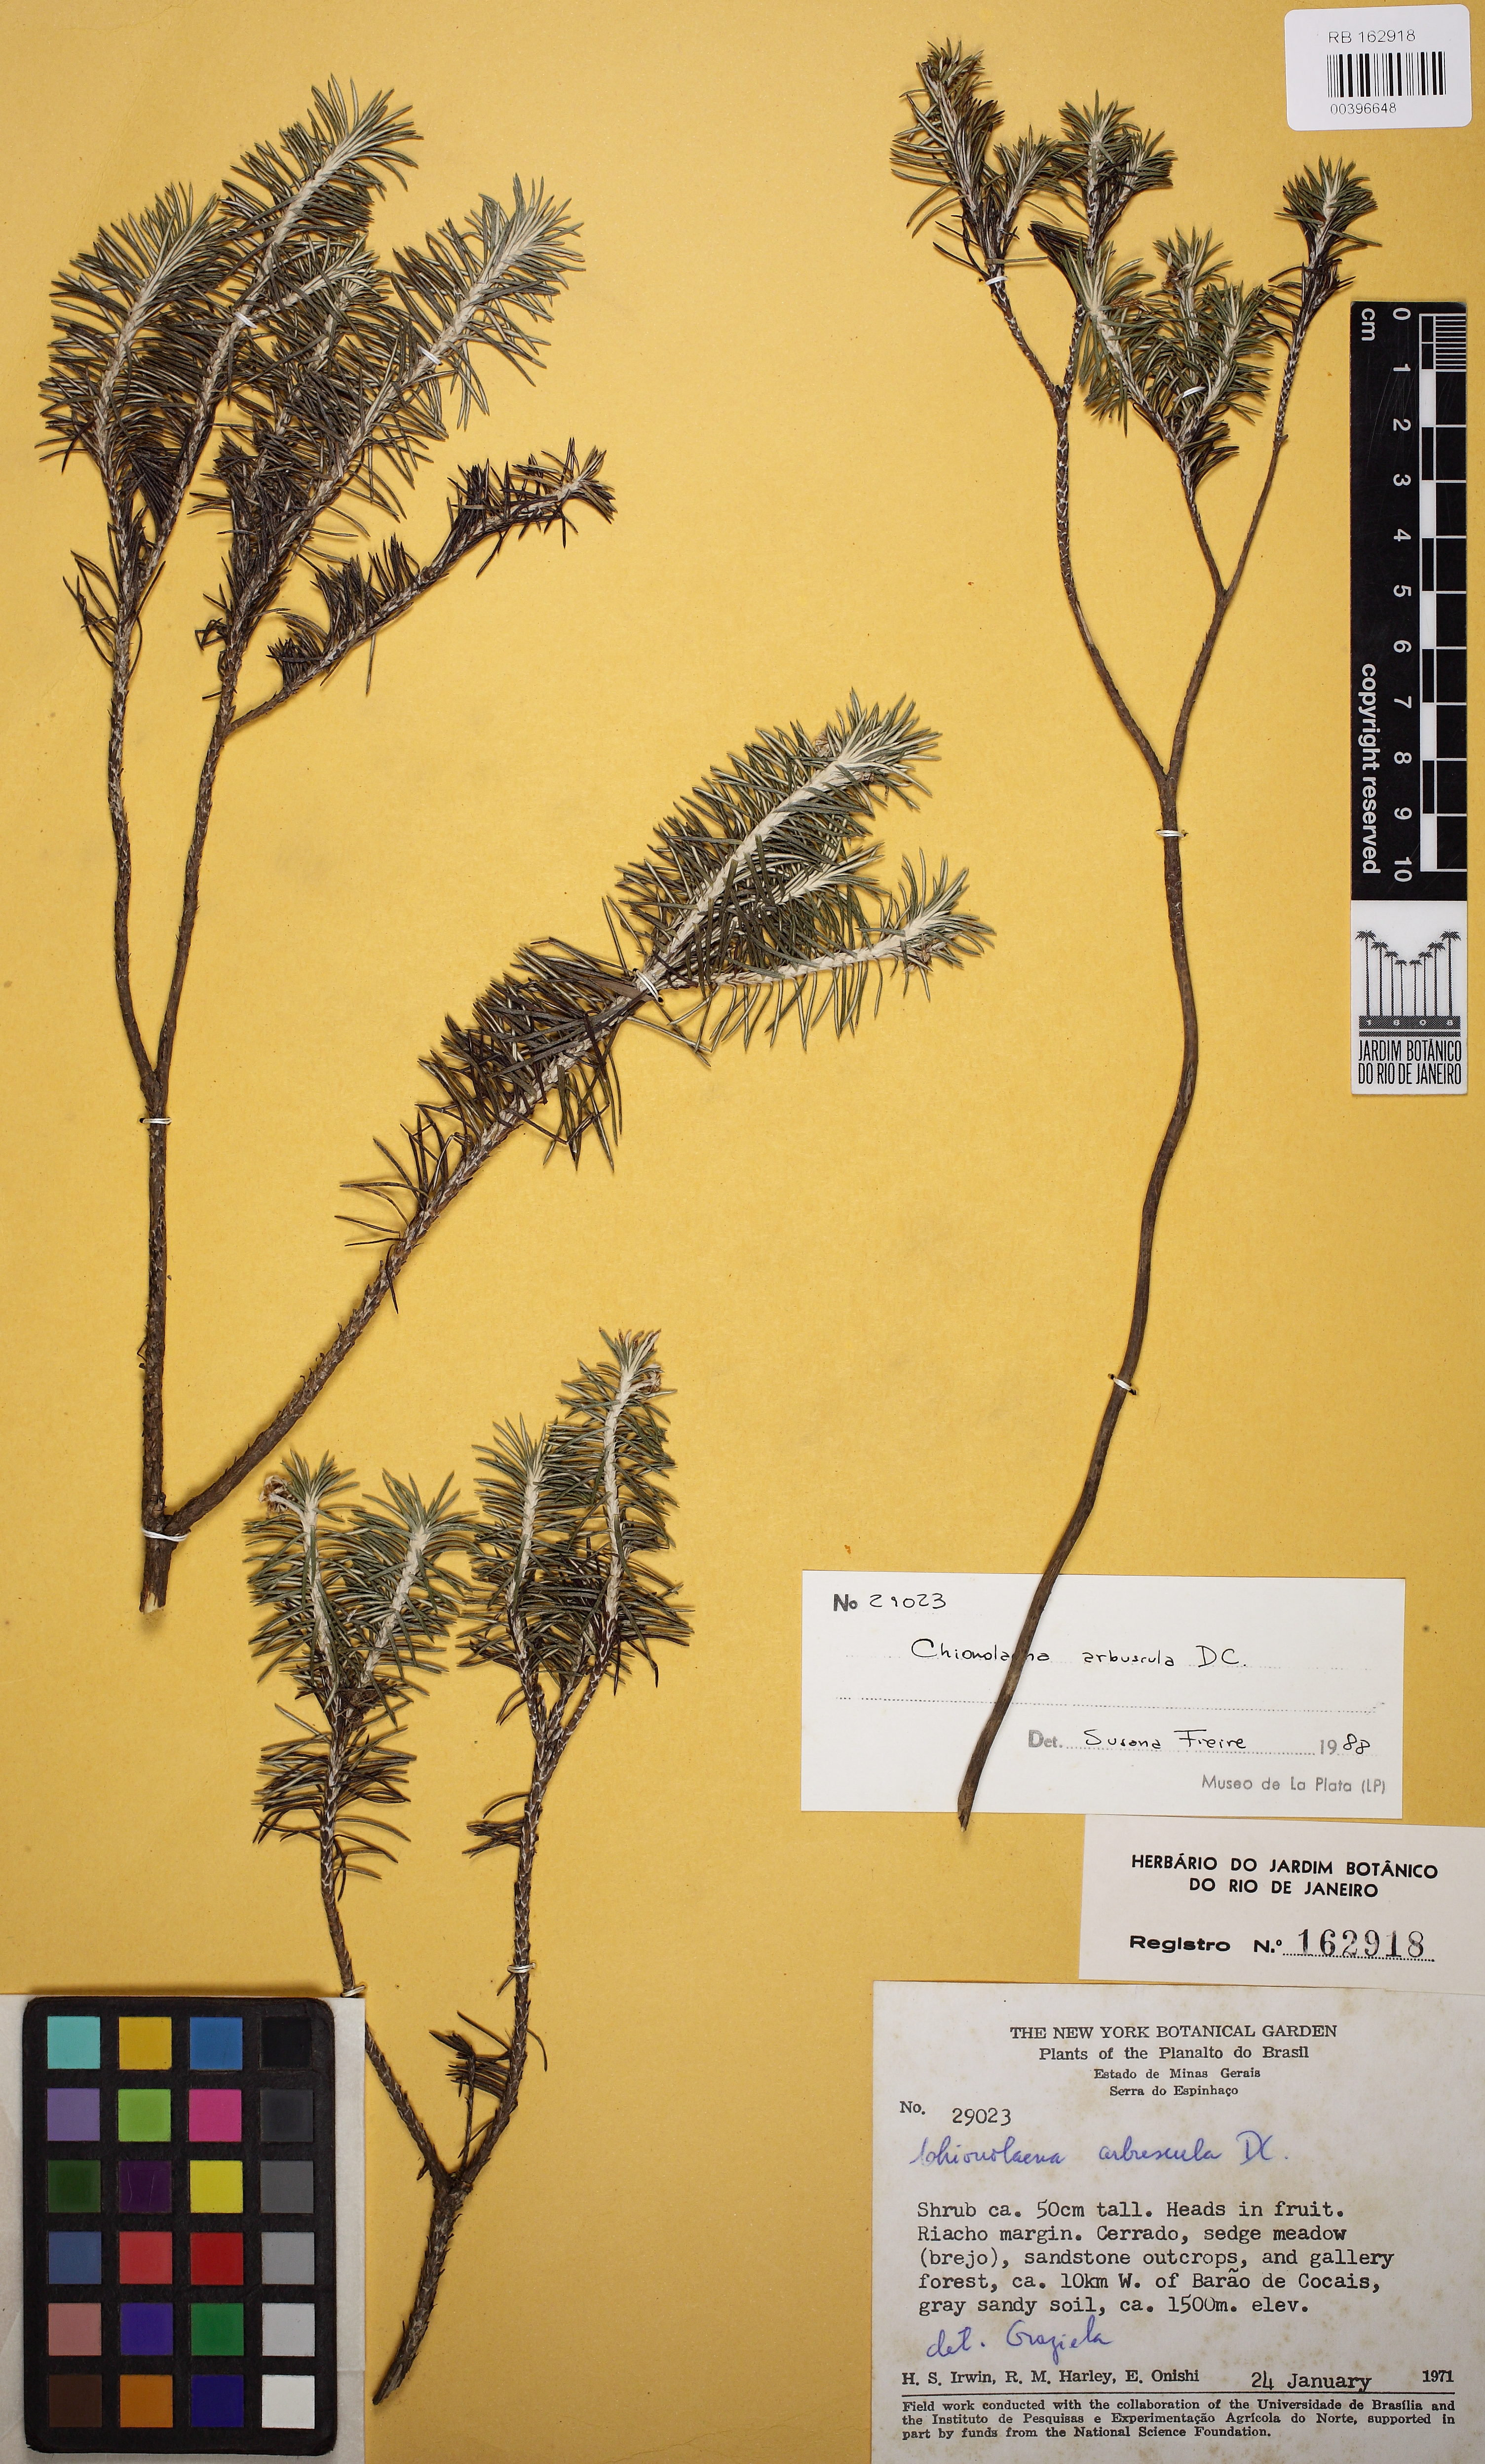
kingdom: Plantae
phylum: Tracheophyta
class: Magnoliopsida
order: Asterales
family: Asteraceae
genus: Chionolaena
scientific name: Chionolaena arbuscula
